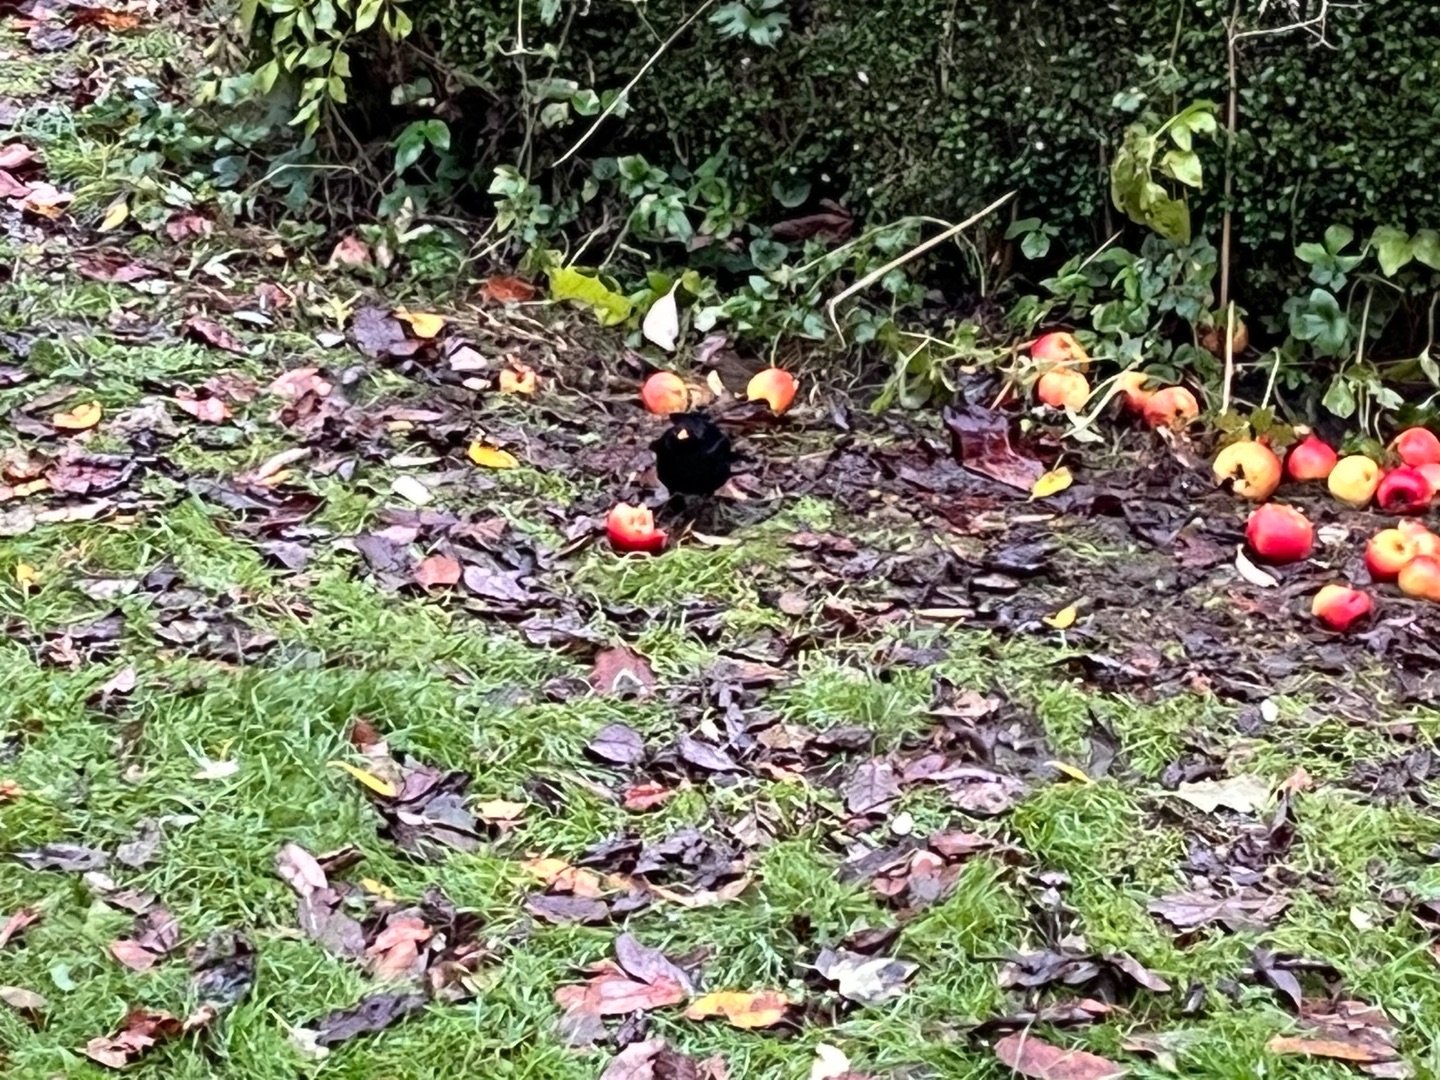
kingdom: Animalia
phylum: Chordata
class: Aves
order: Passeriformes
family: Turdidae
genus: Turdus
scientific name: Turdus merula
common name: Solsort
